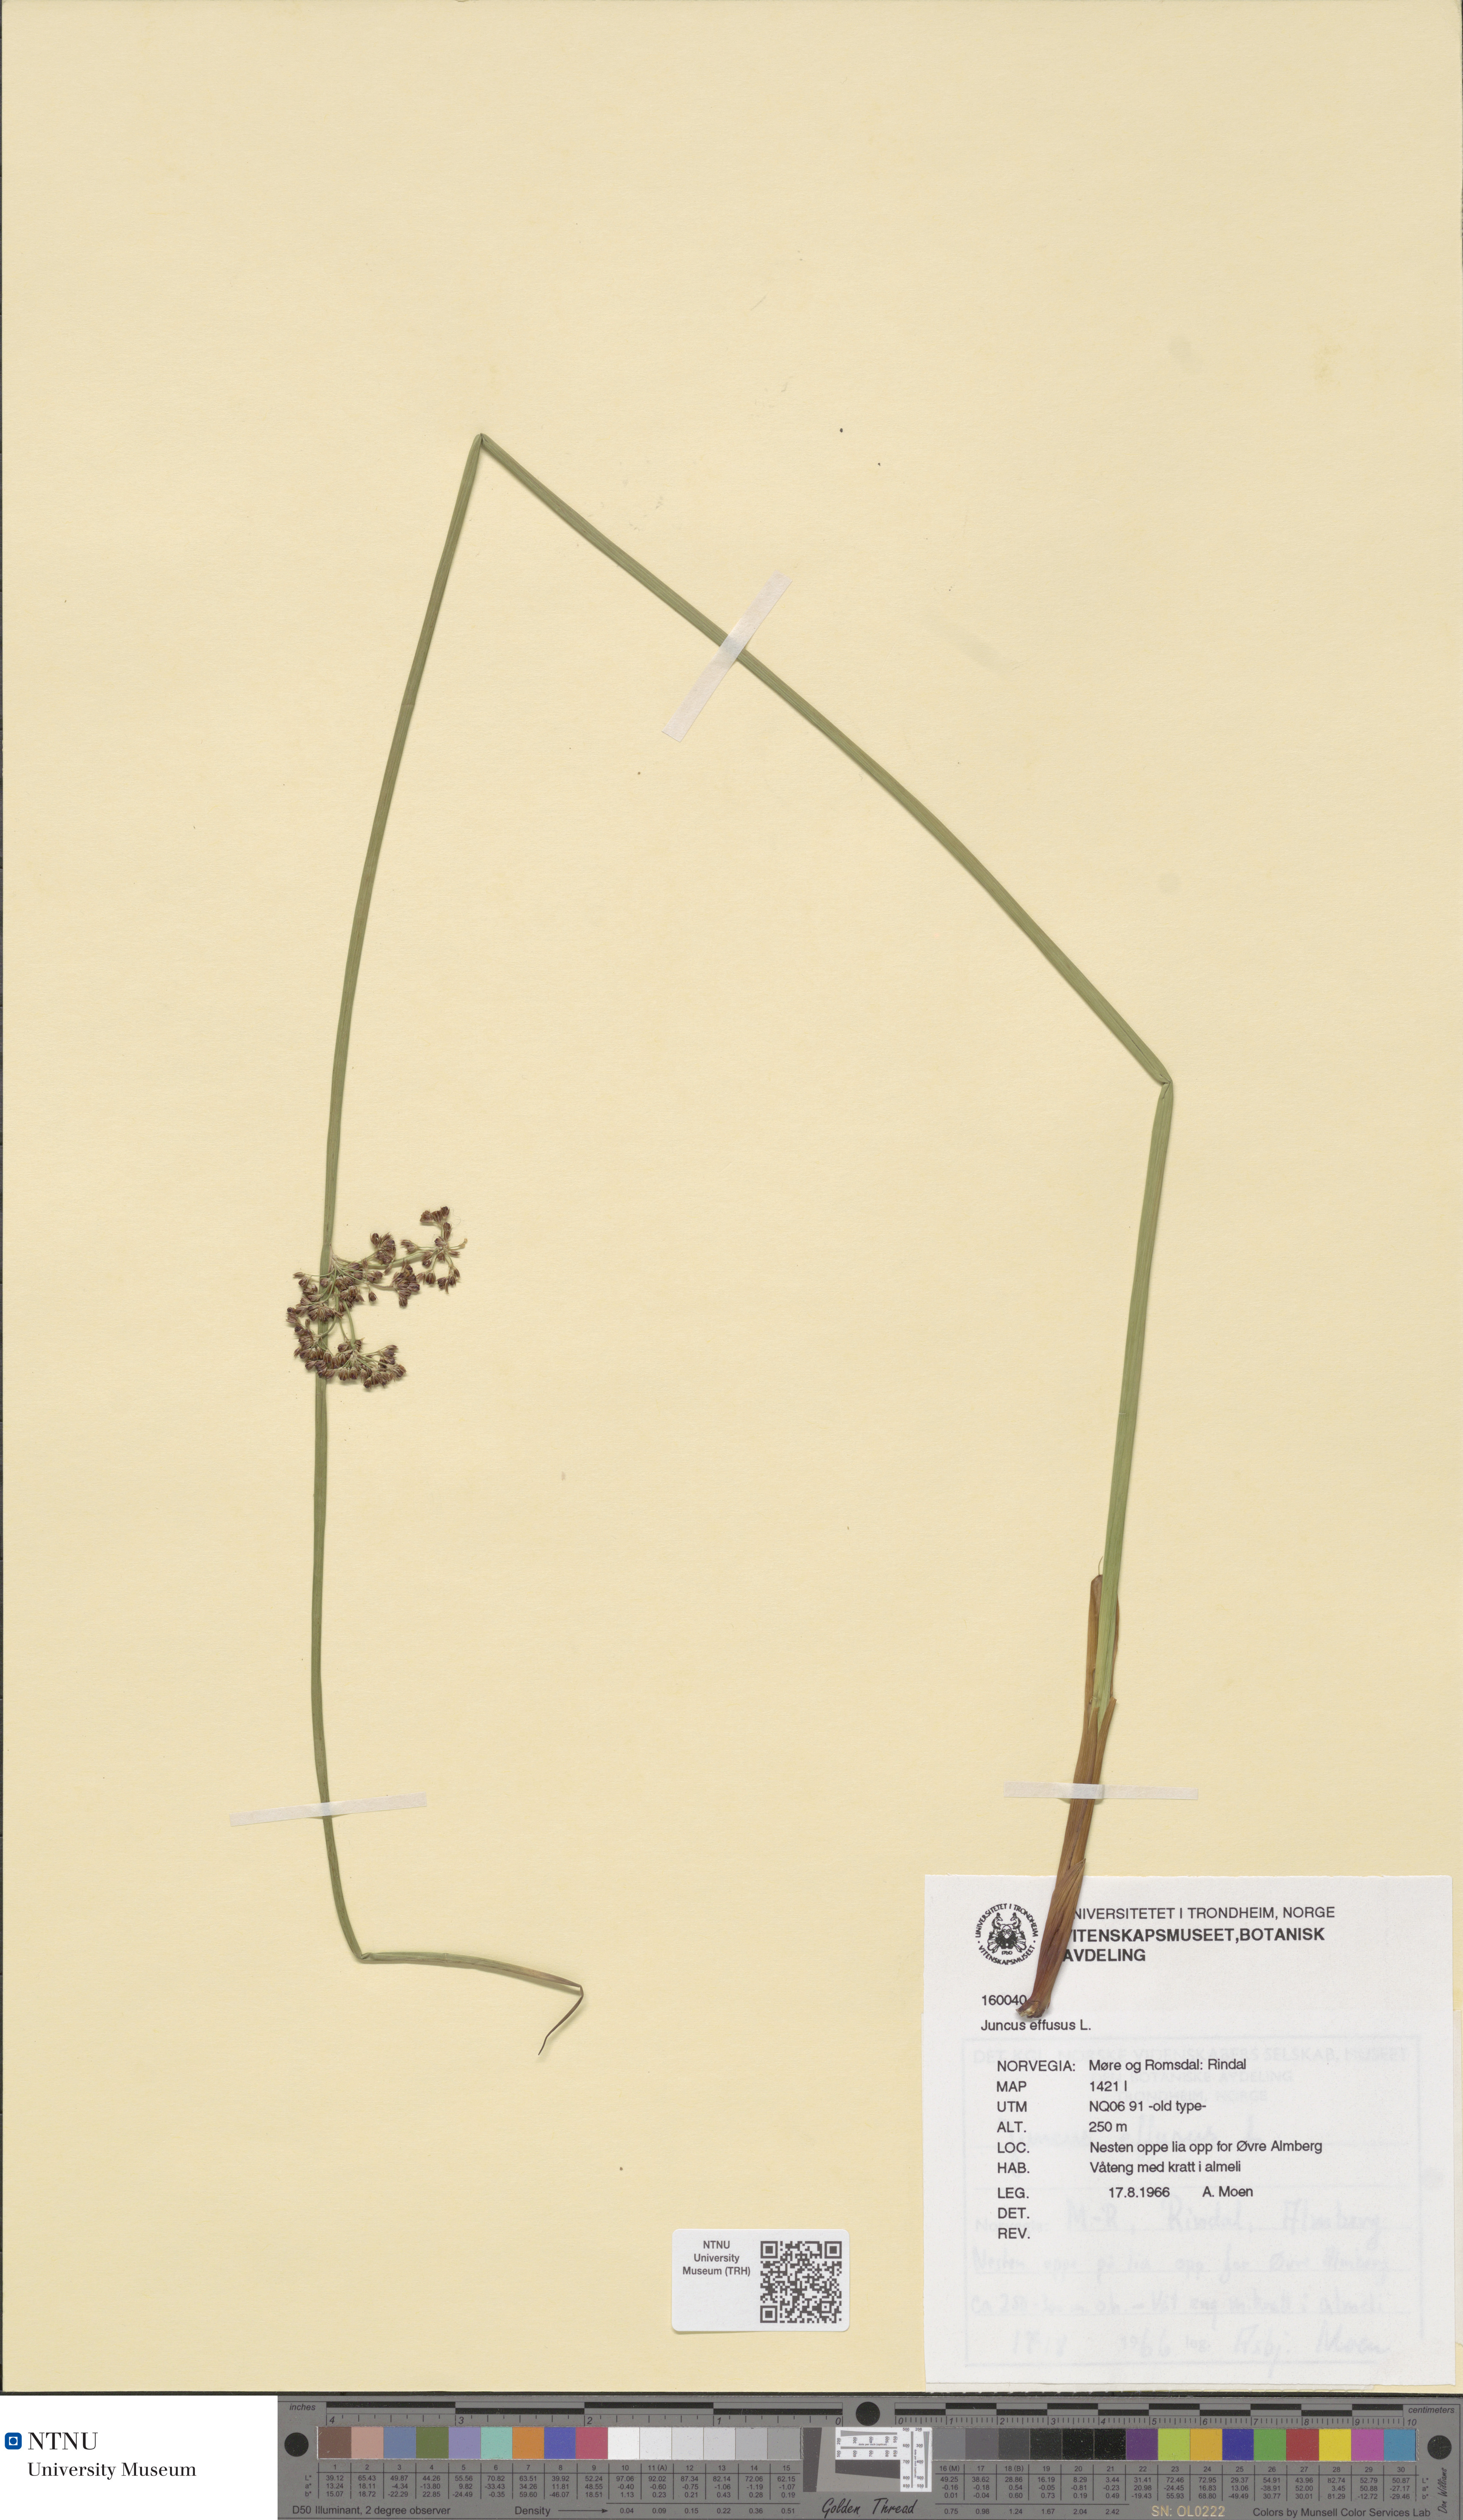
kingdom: Plantae
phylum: Tracheophyta
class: Liliopsida
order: Poales
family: Juncaceae
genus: Juncus
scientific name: Juncus effusus
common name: Soft rush
